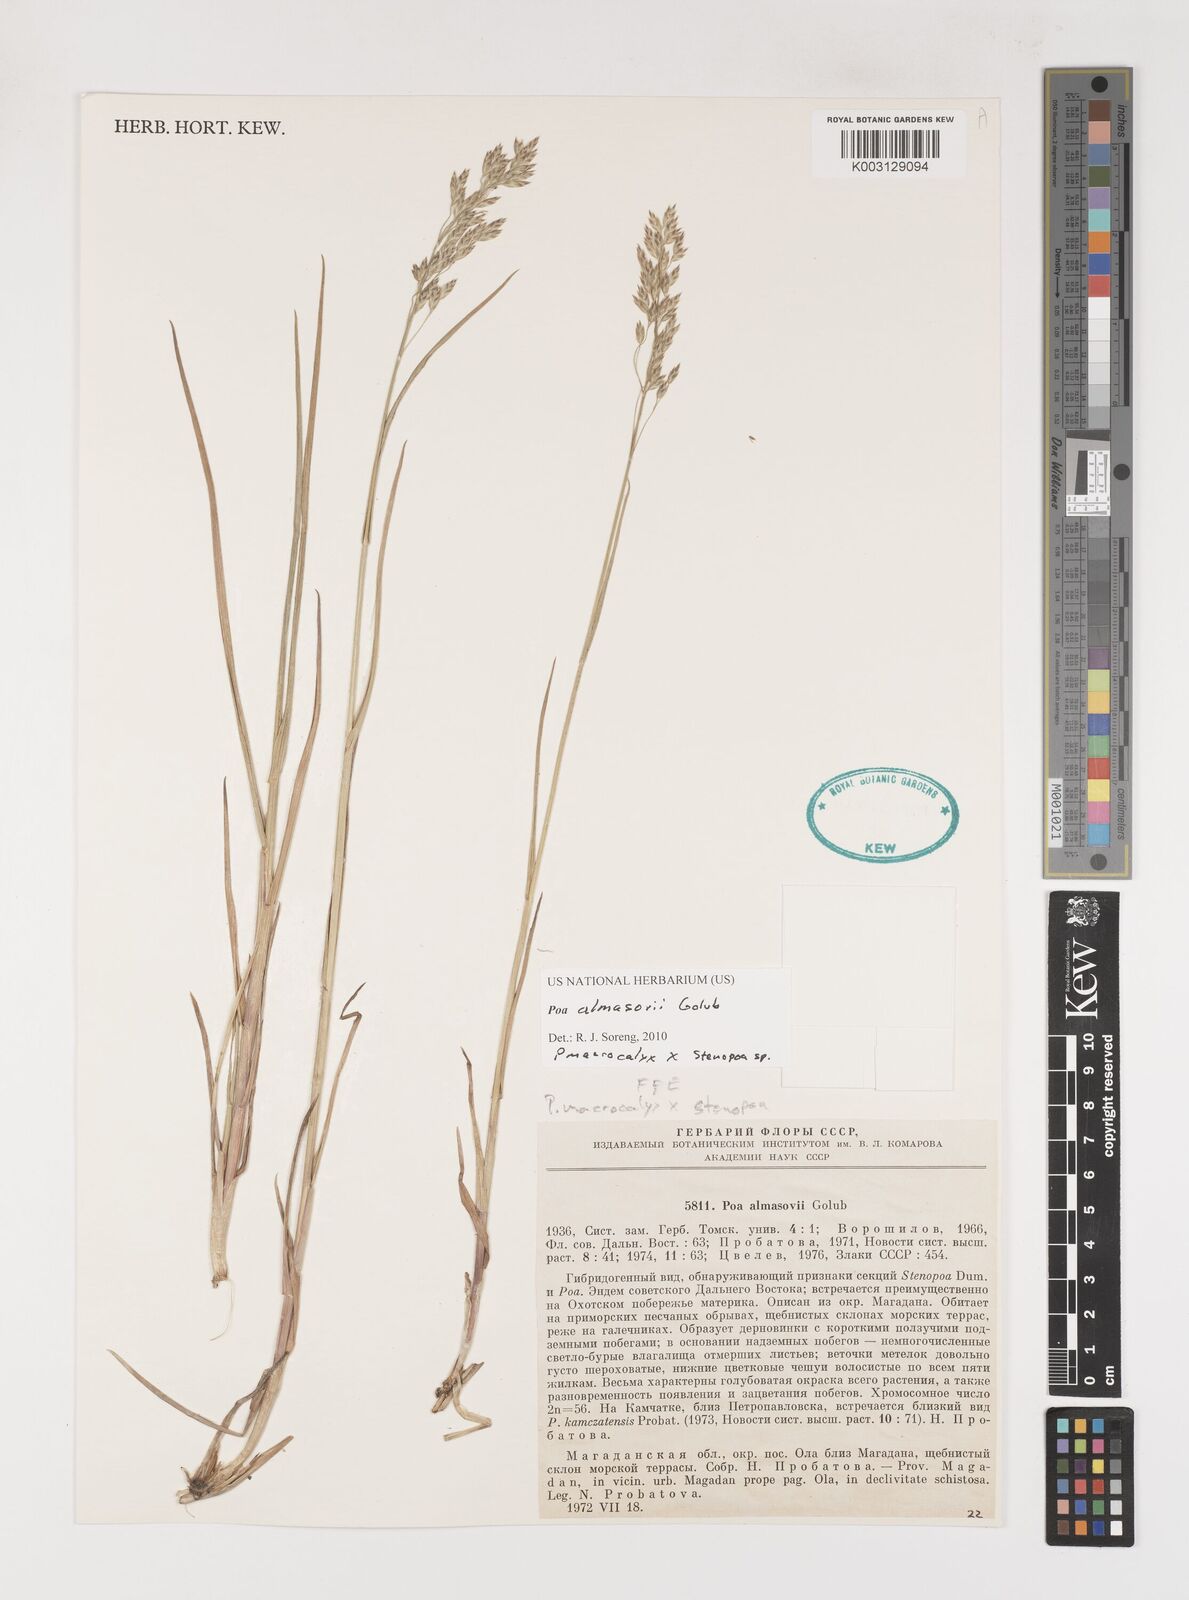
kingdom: Plantae
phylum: Tracheophyta
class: Liliopsida
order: Poales
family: Poaceae
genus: Poa
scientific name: Poa almasovii
